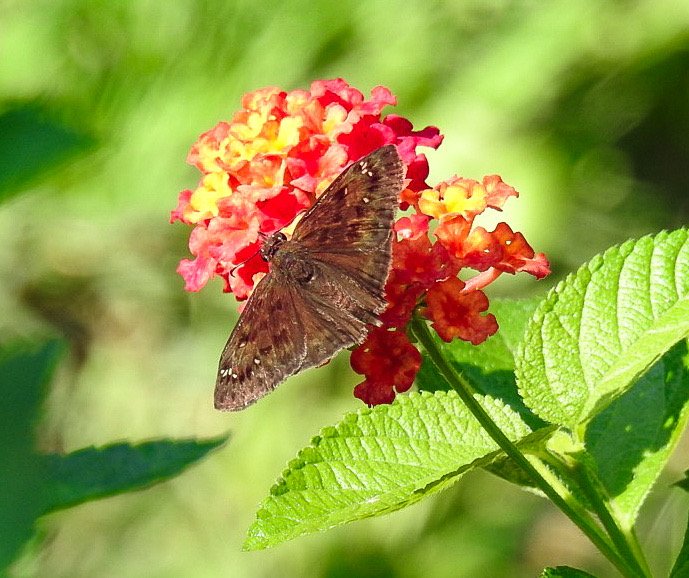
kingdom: Animalia
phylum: Arthropoda
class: Insecta
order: Lepidoptera
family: Hesperiidae
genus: Gesta
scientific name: Gesta
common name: Horace's Duskywing
